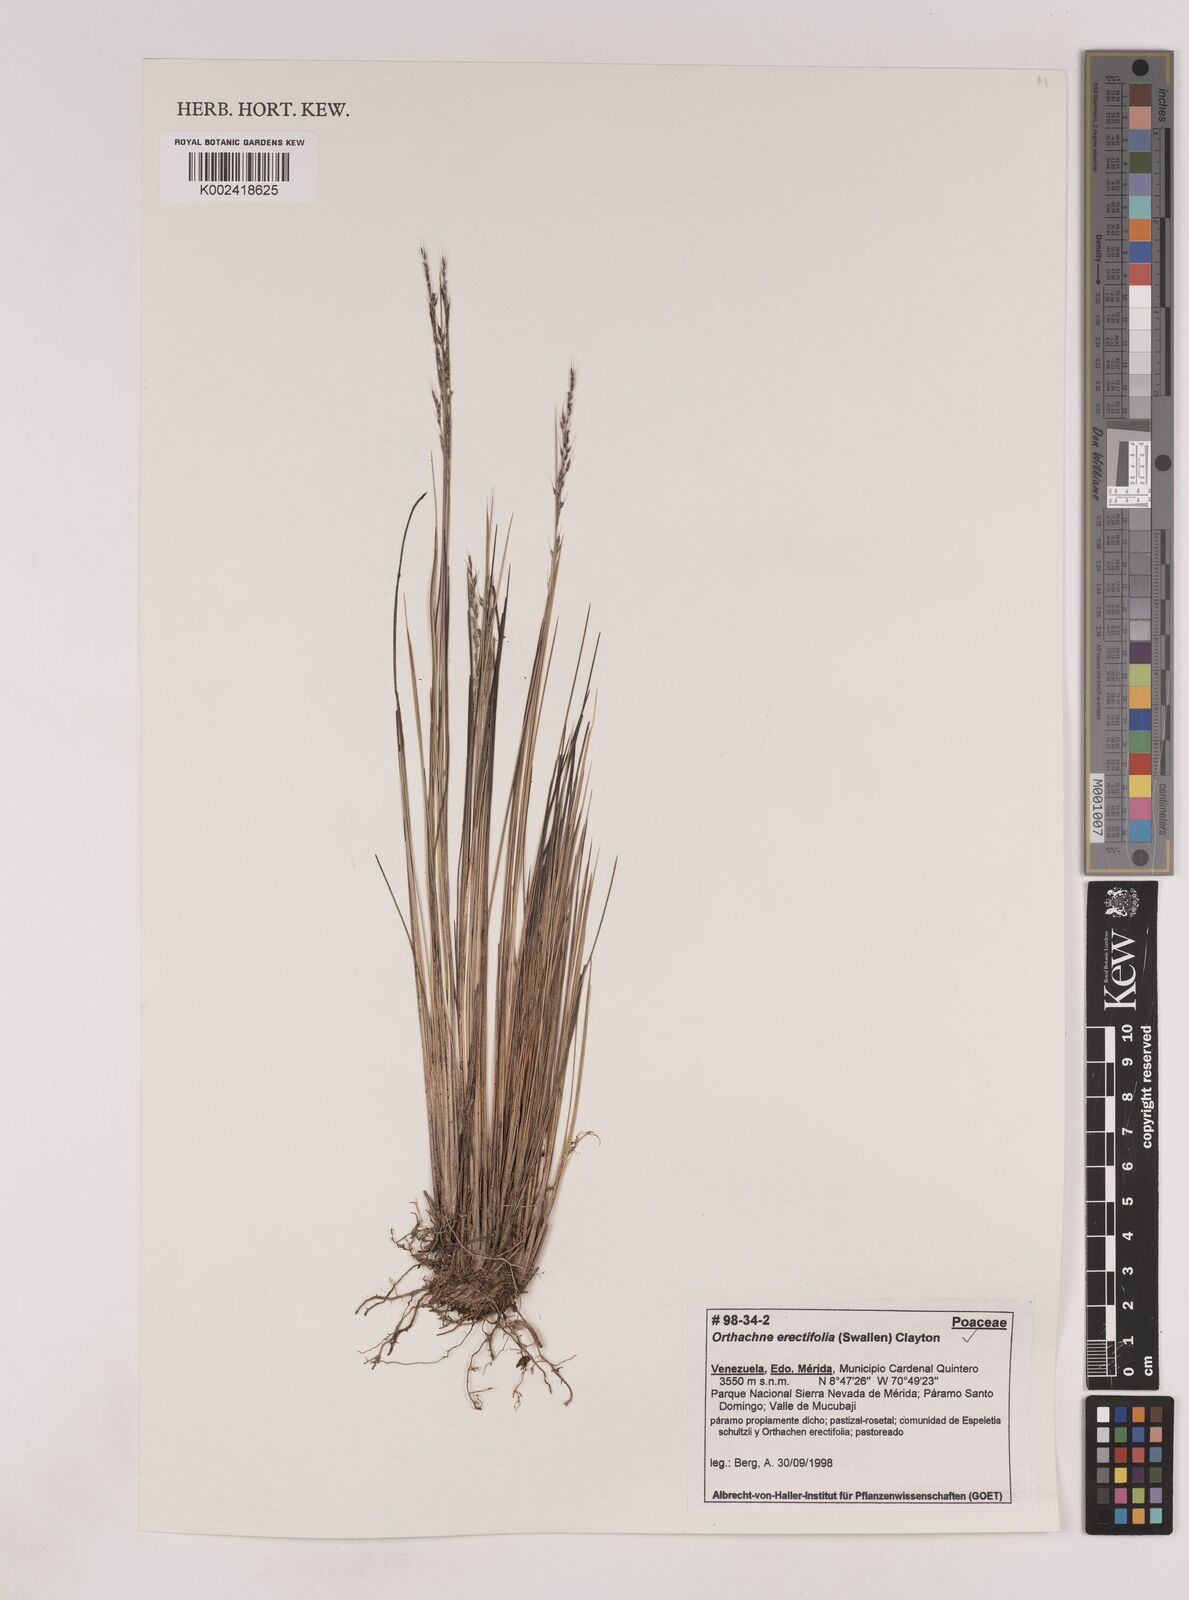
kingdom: Plantae
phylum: Tracheophyta
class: Liliopsida
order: Poales
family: Poaceae
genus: Lorenzochloa
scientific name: Lorenzochloa erectifolia
